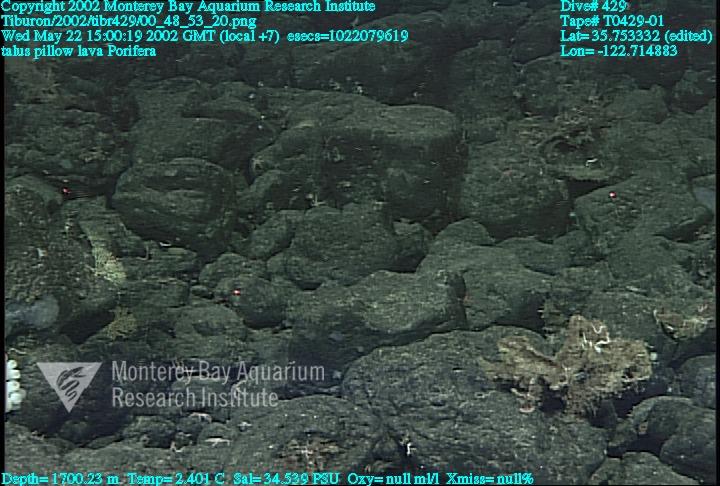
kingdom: Animalia
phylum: Porifera
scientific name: Porifera
